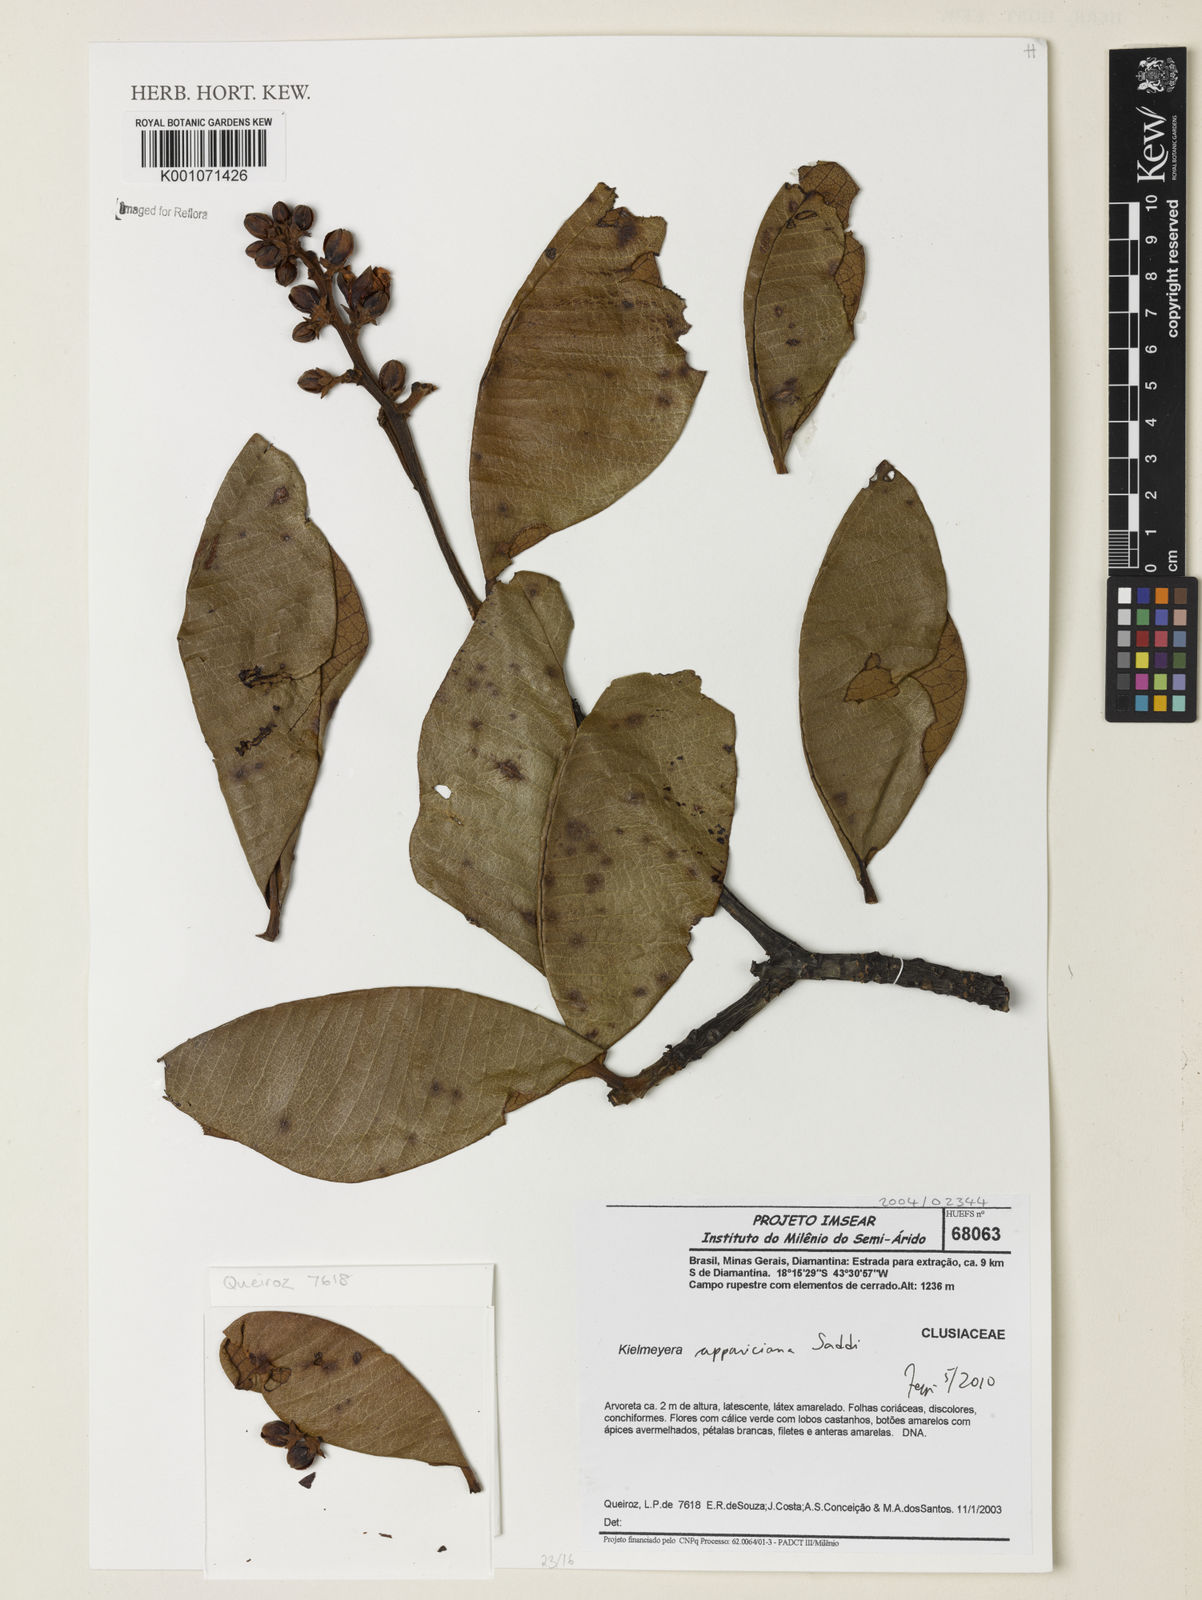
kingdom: Plantae
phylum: Tracheophyta
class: Magnoliopsida
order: Malpighiales
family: Calophyllaceae
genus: Kielmeyera
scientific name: Kielmeyera appariciana
